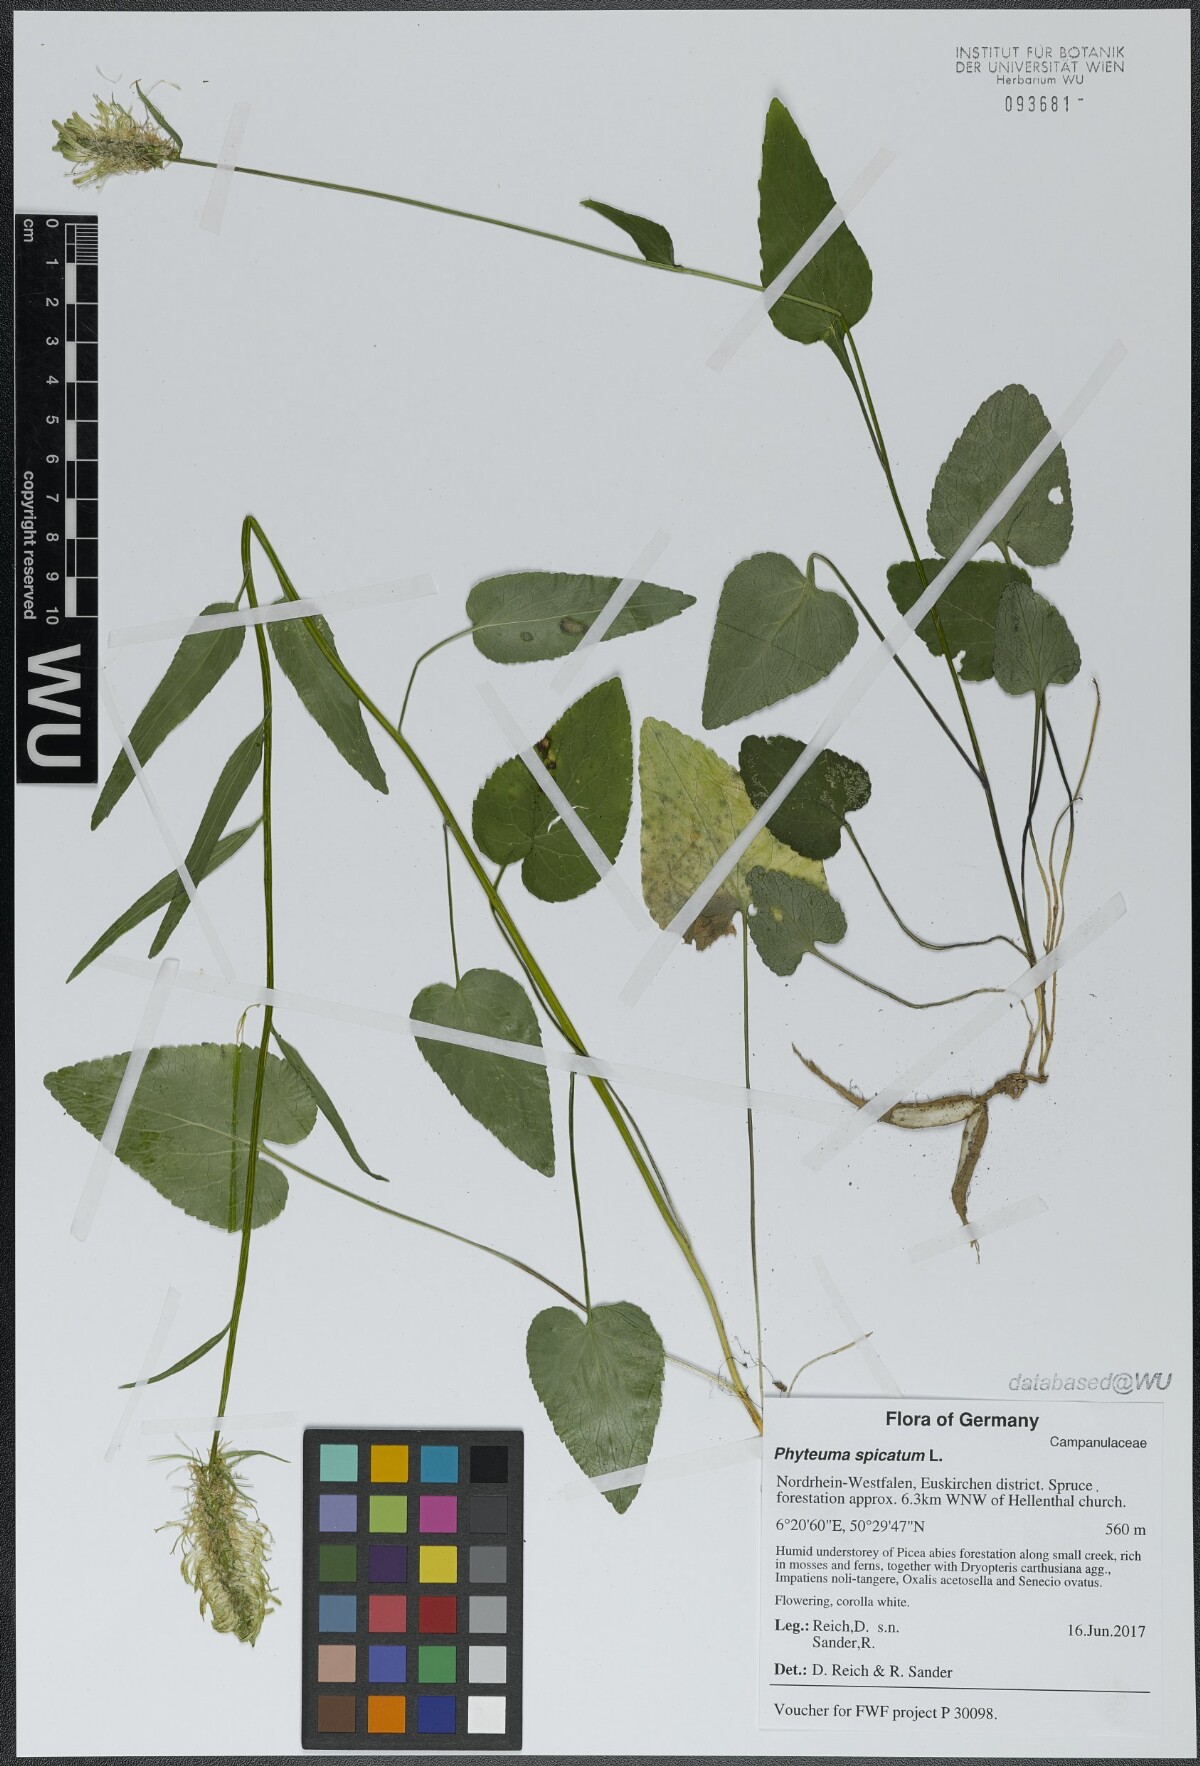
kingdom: Plantae
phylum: Tracheophyta
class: Magnoliopsida
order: Asterales
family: Campanulaceae
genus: Phyteuma
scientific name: Phyteuma spicatum
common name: Spiked rampion
